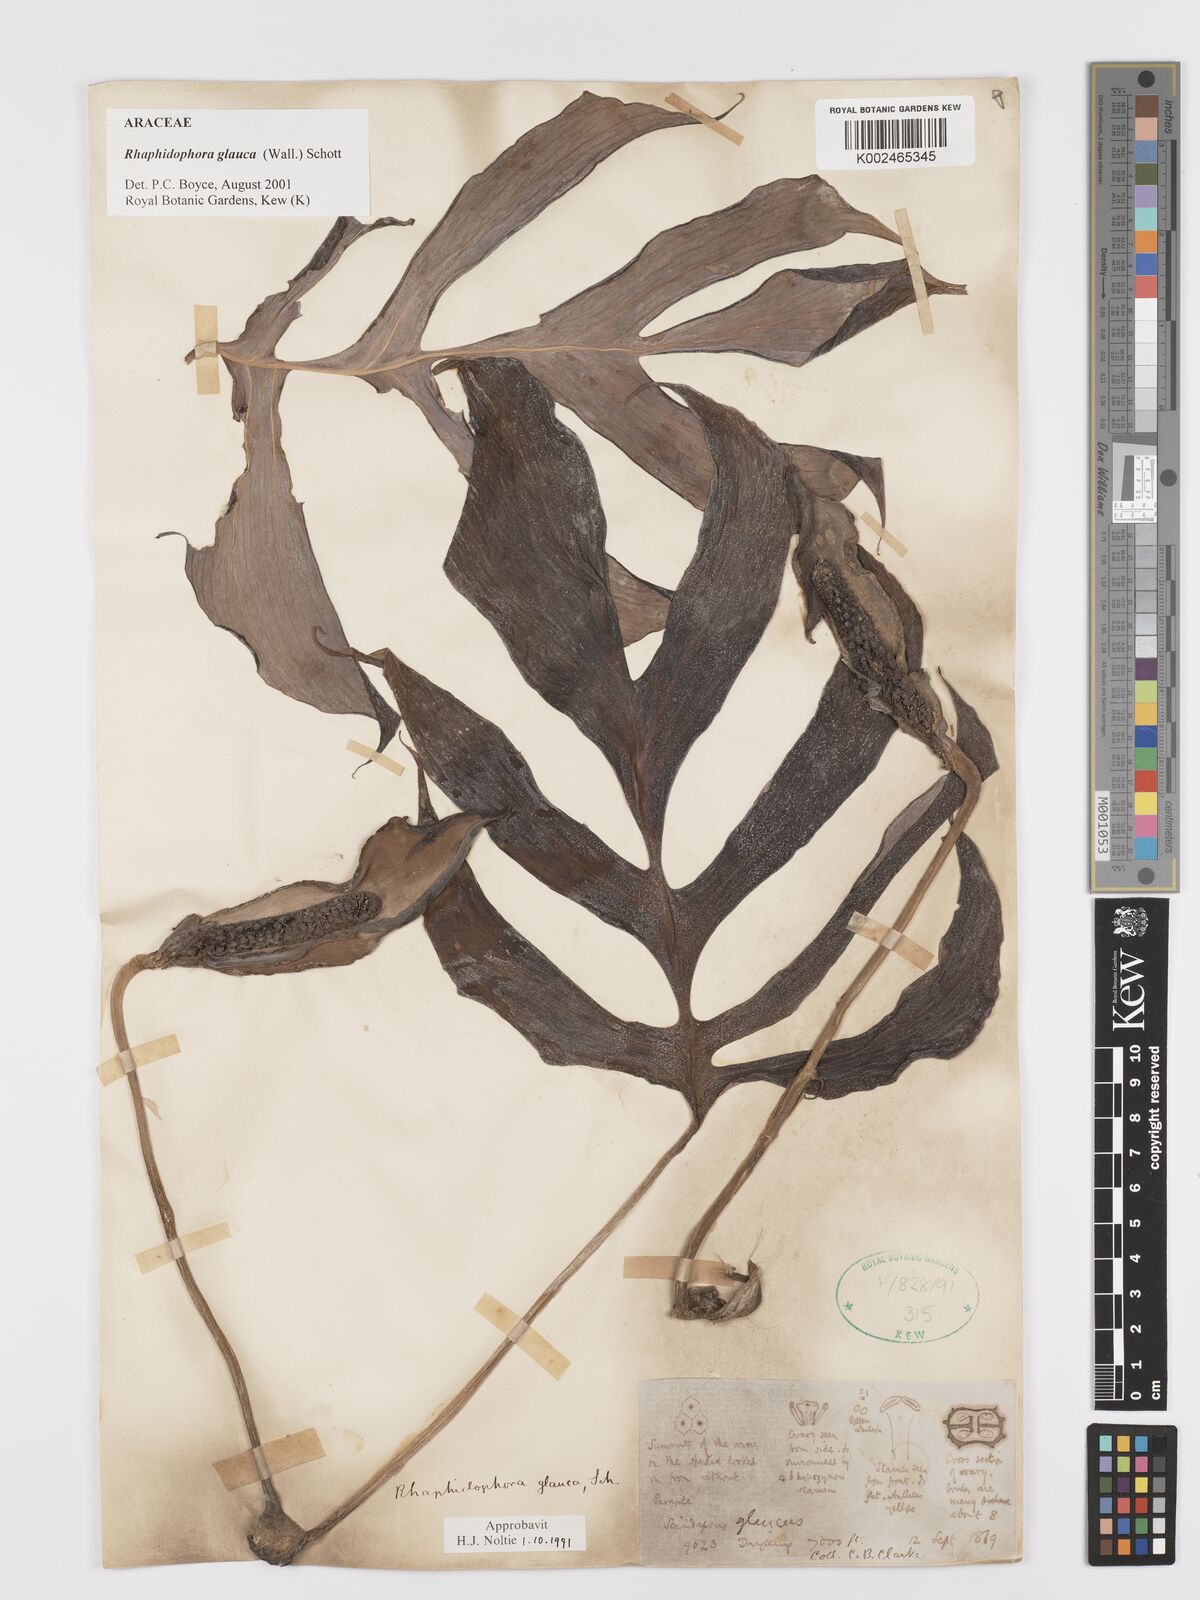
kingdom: Plantae
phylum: Tracheophyta
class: Liliopsida
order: Alismatales
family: Araceae
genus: Rhaphidophora
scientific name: Rhaphidophora glauca
